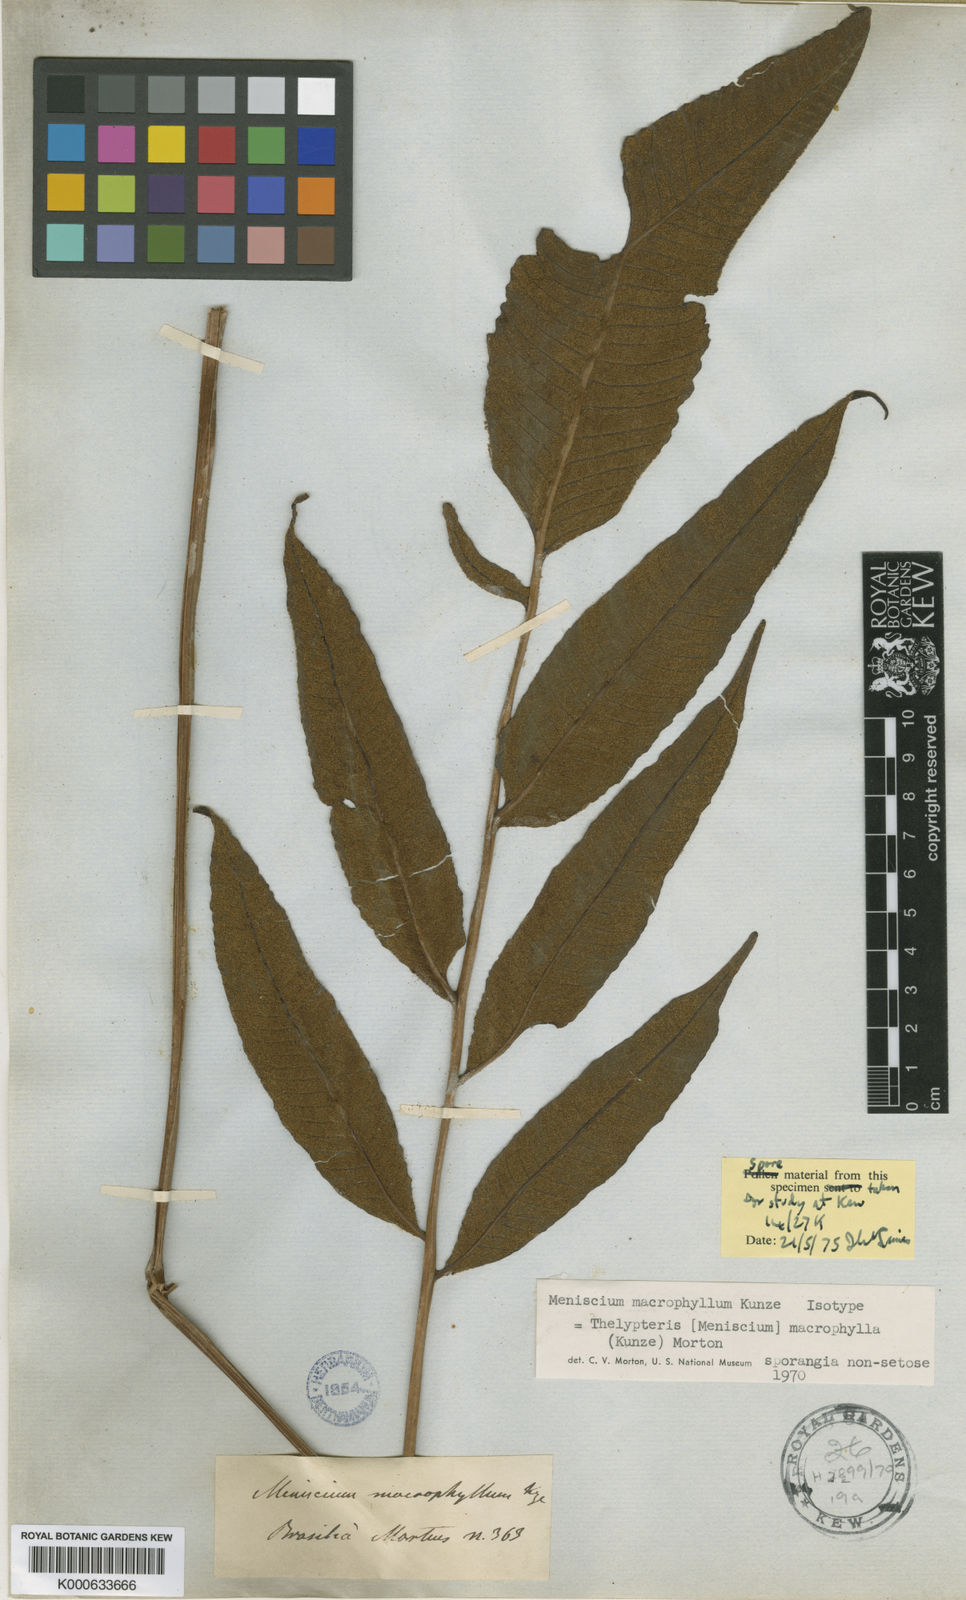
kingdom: Plantae
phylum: Tracheophyta
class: Polypodiopsida
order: Polypodiales
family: Thelypteridaceae
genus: Meniscium
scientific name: Meniscium macrophyllum
